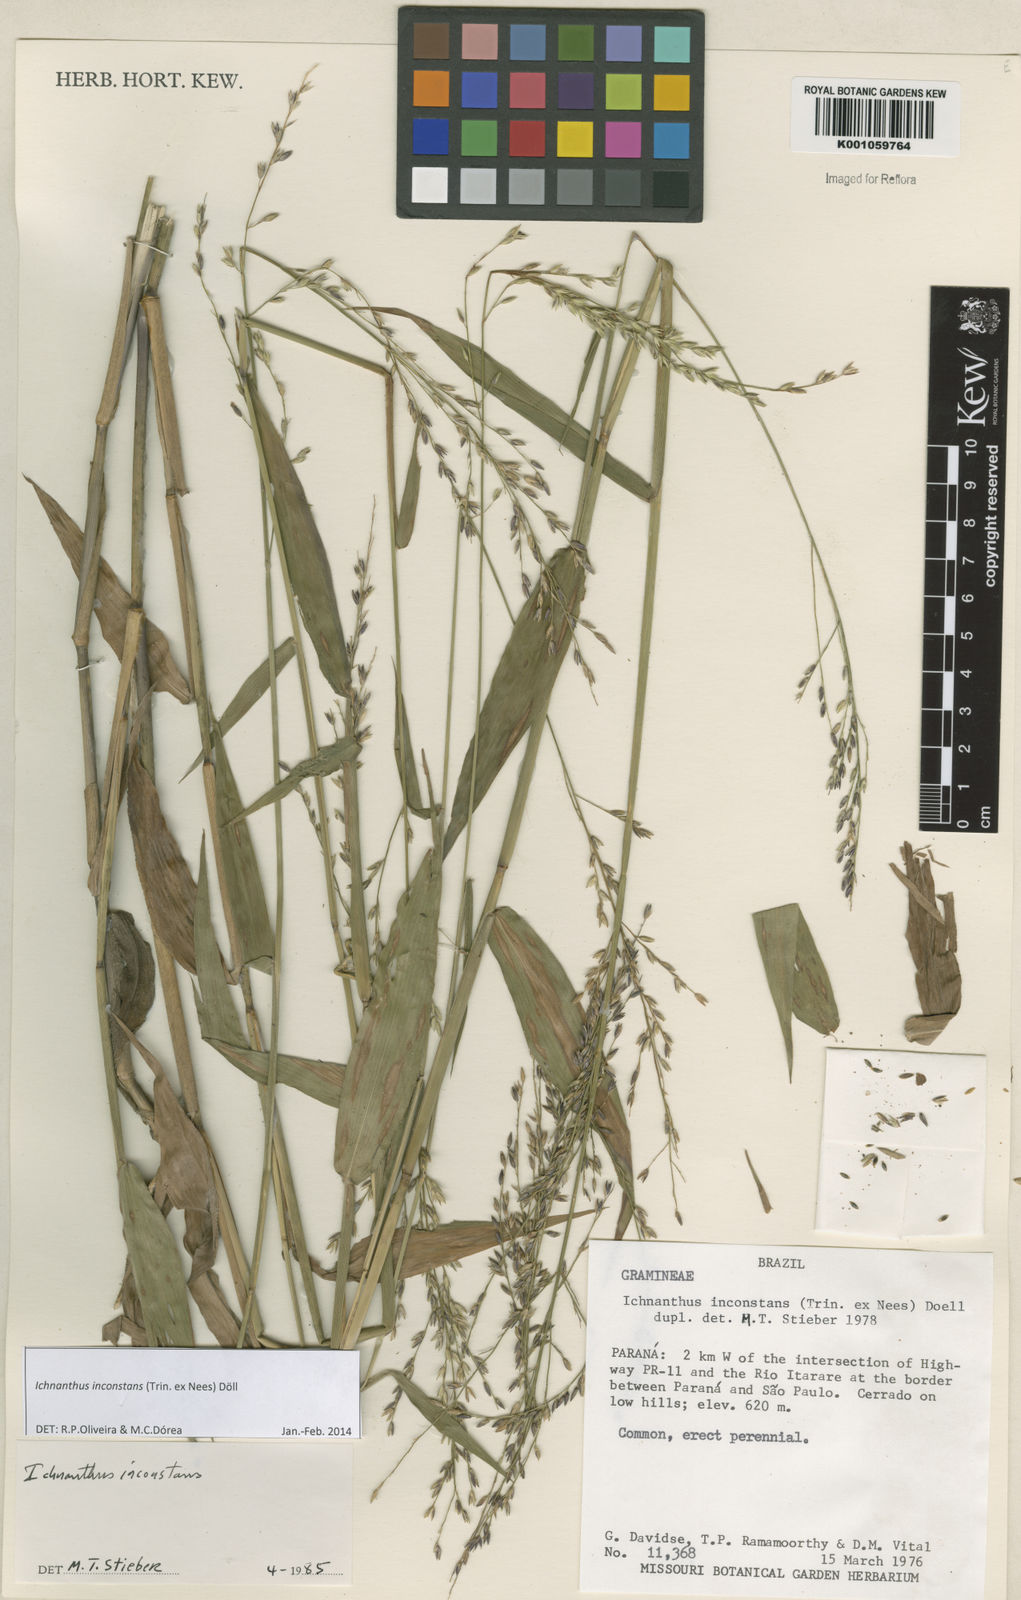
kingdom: Plantae
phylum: Tracheophyta
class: Liliopsida
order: Poales
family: Poaceae
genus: Ichnanthus
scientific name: Ichnanthus
